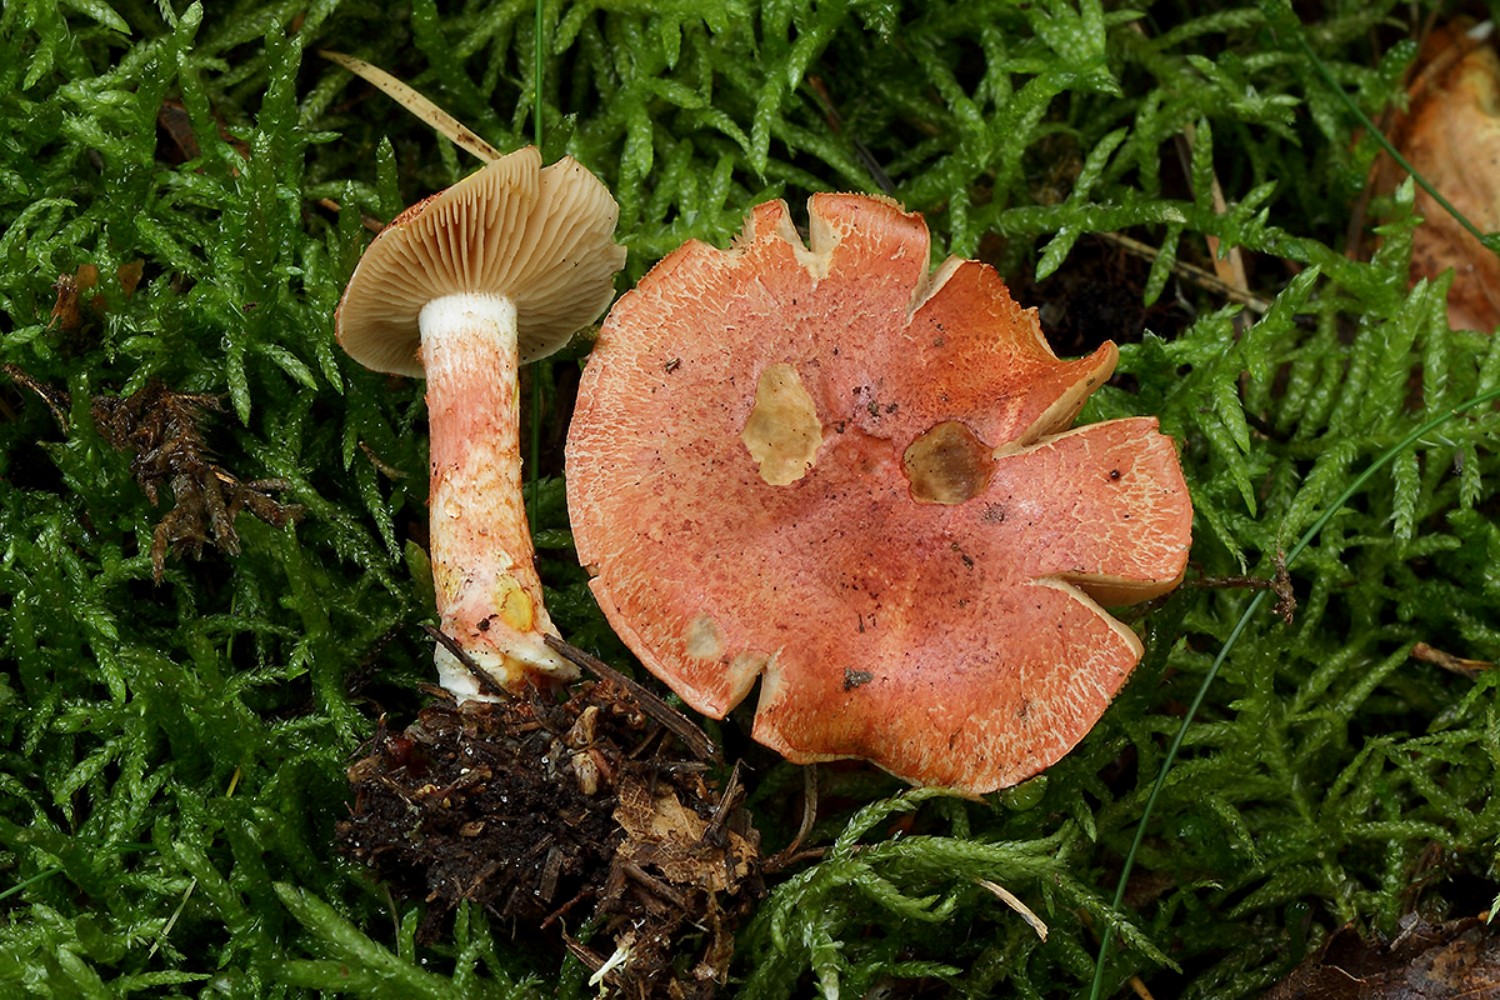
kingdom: Fungi
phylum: Basidiomycota
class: Agaricomycetes
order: Agaricales
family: Cortinariaceae
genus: Cortinarius
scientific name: Cortinarius bolaris
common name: cinnoberskællet slørhat
